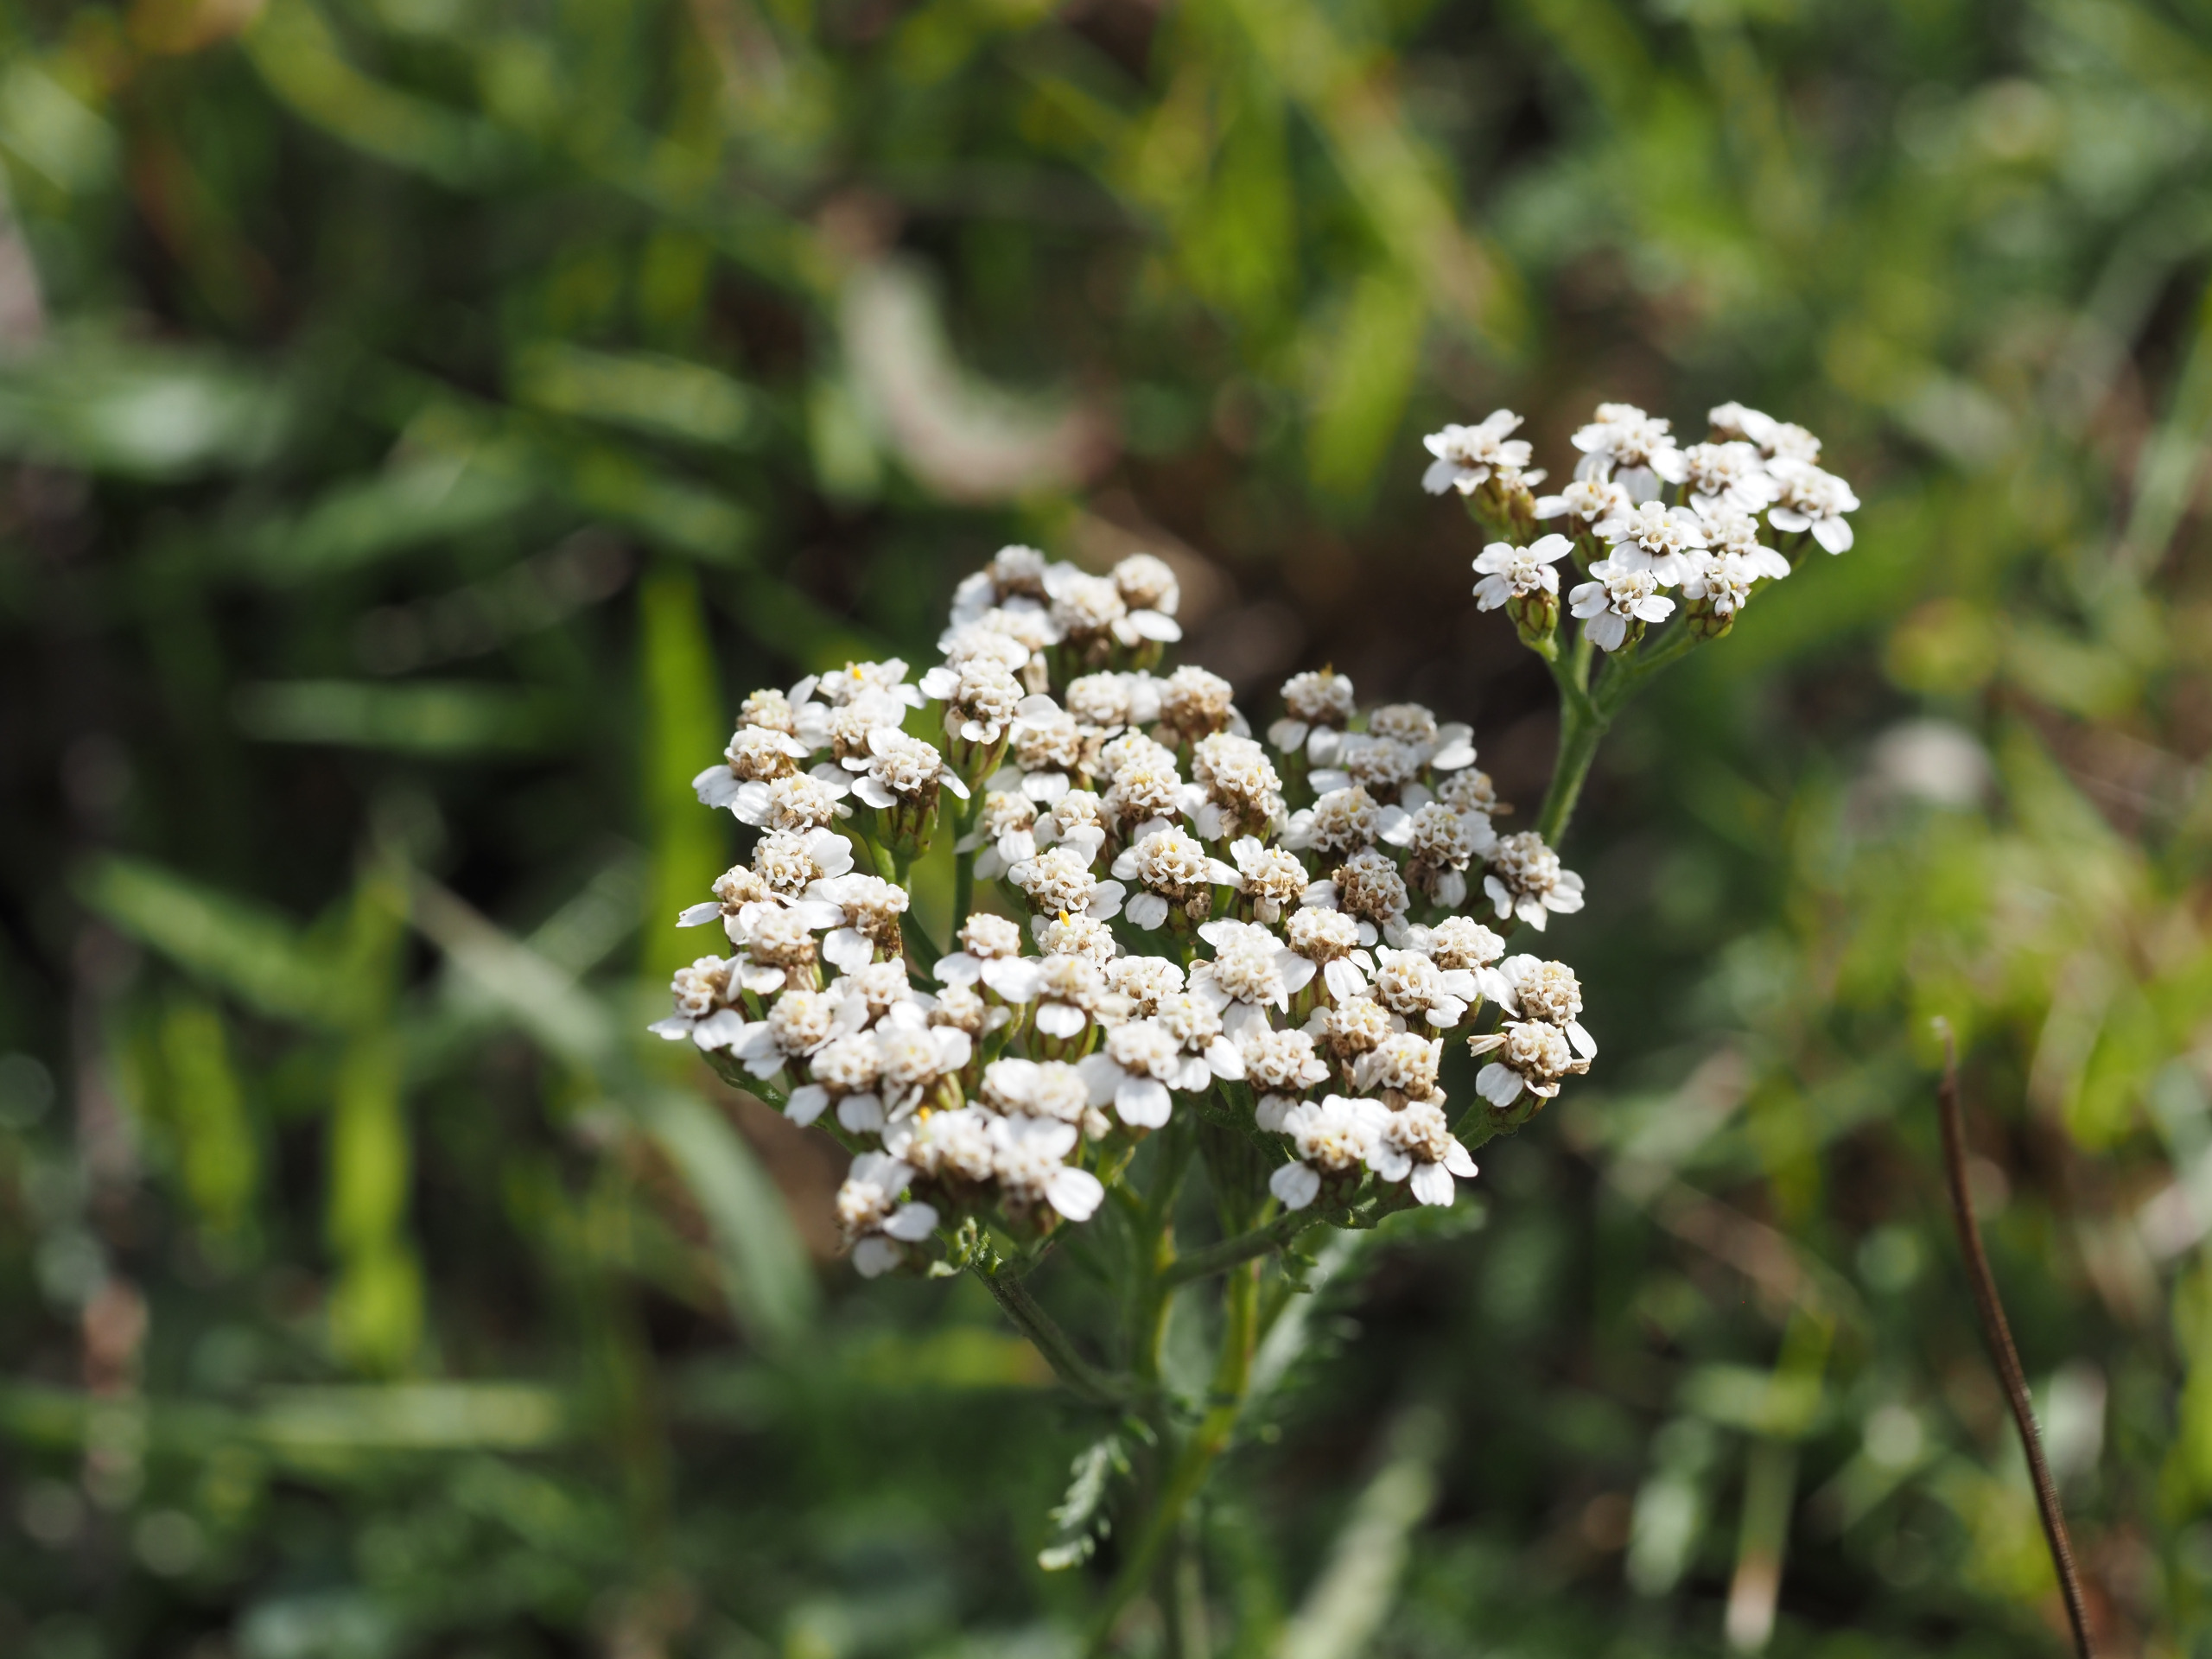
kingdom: Plantae
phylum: Tracheophyta
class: Magnoliopsida
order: Asterales
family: Asteraceae
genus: Achillea
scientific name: Achillea millefolium
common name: Almindelig røllike
